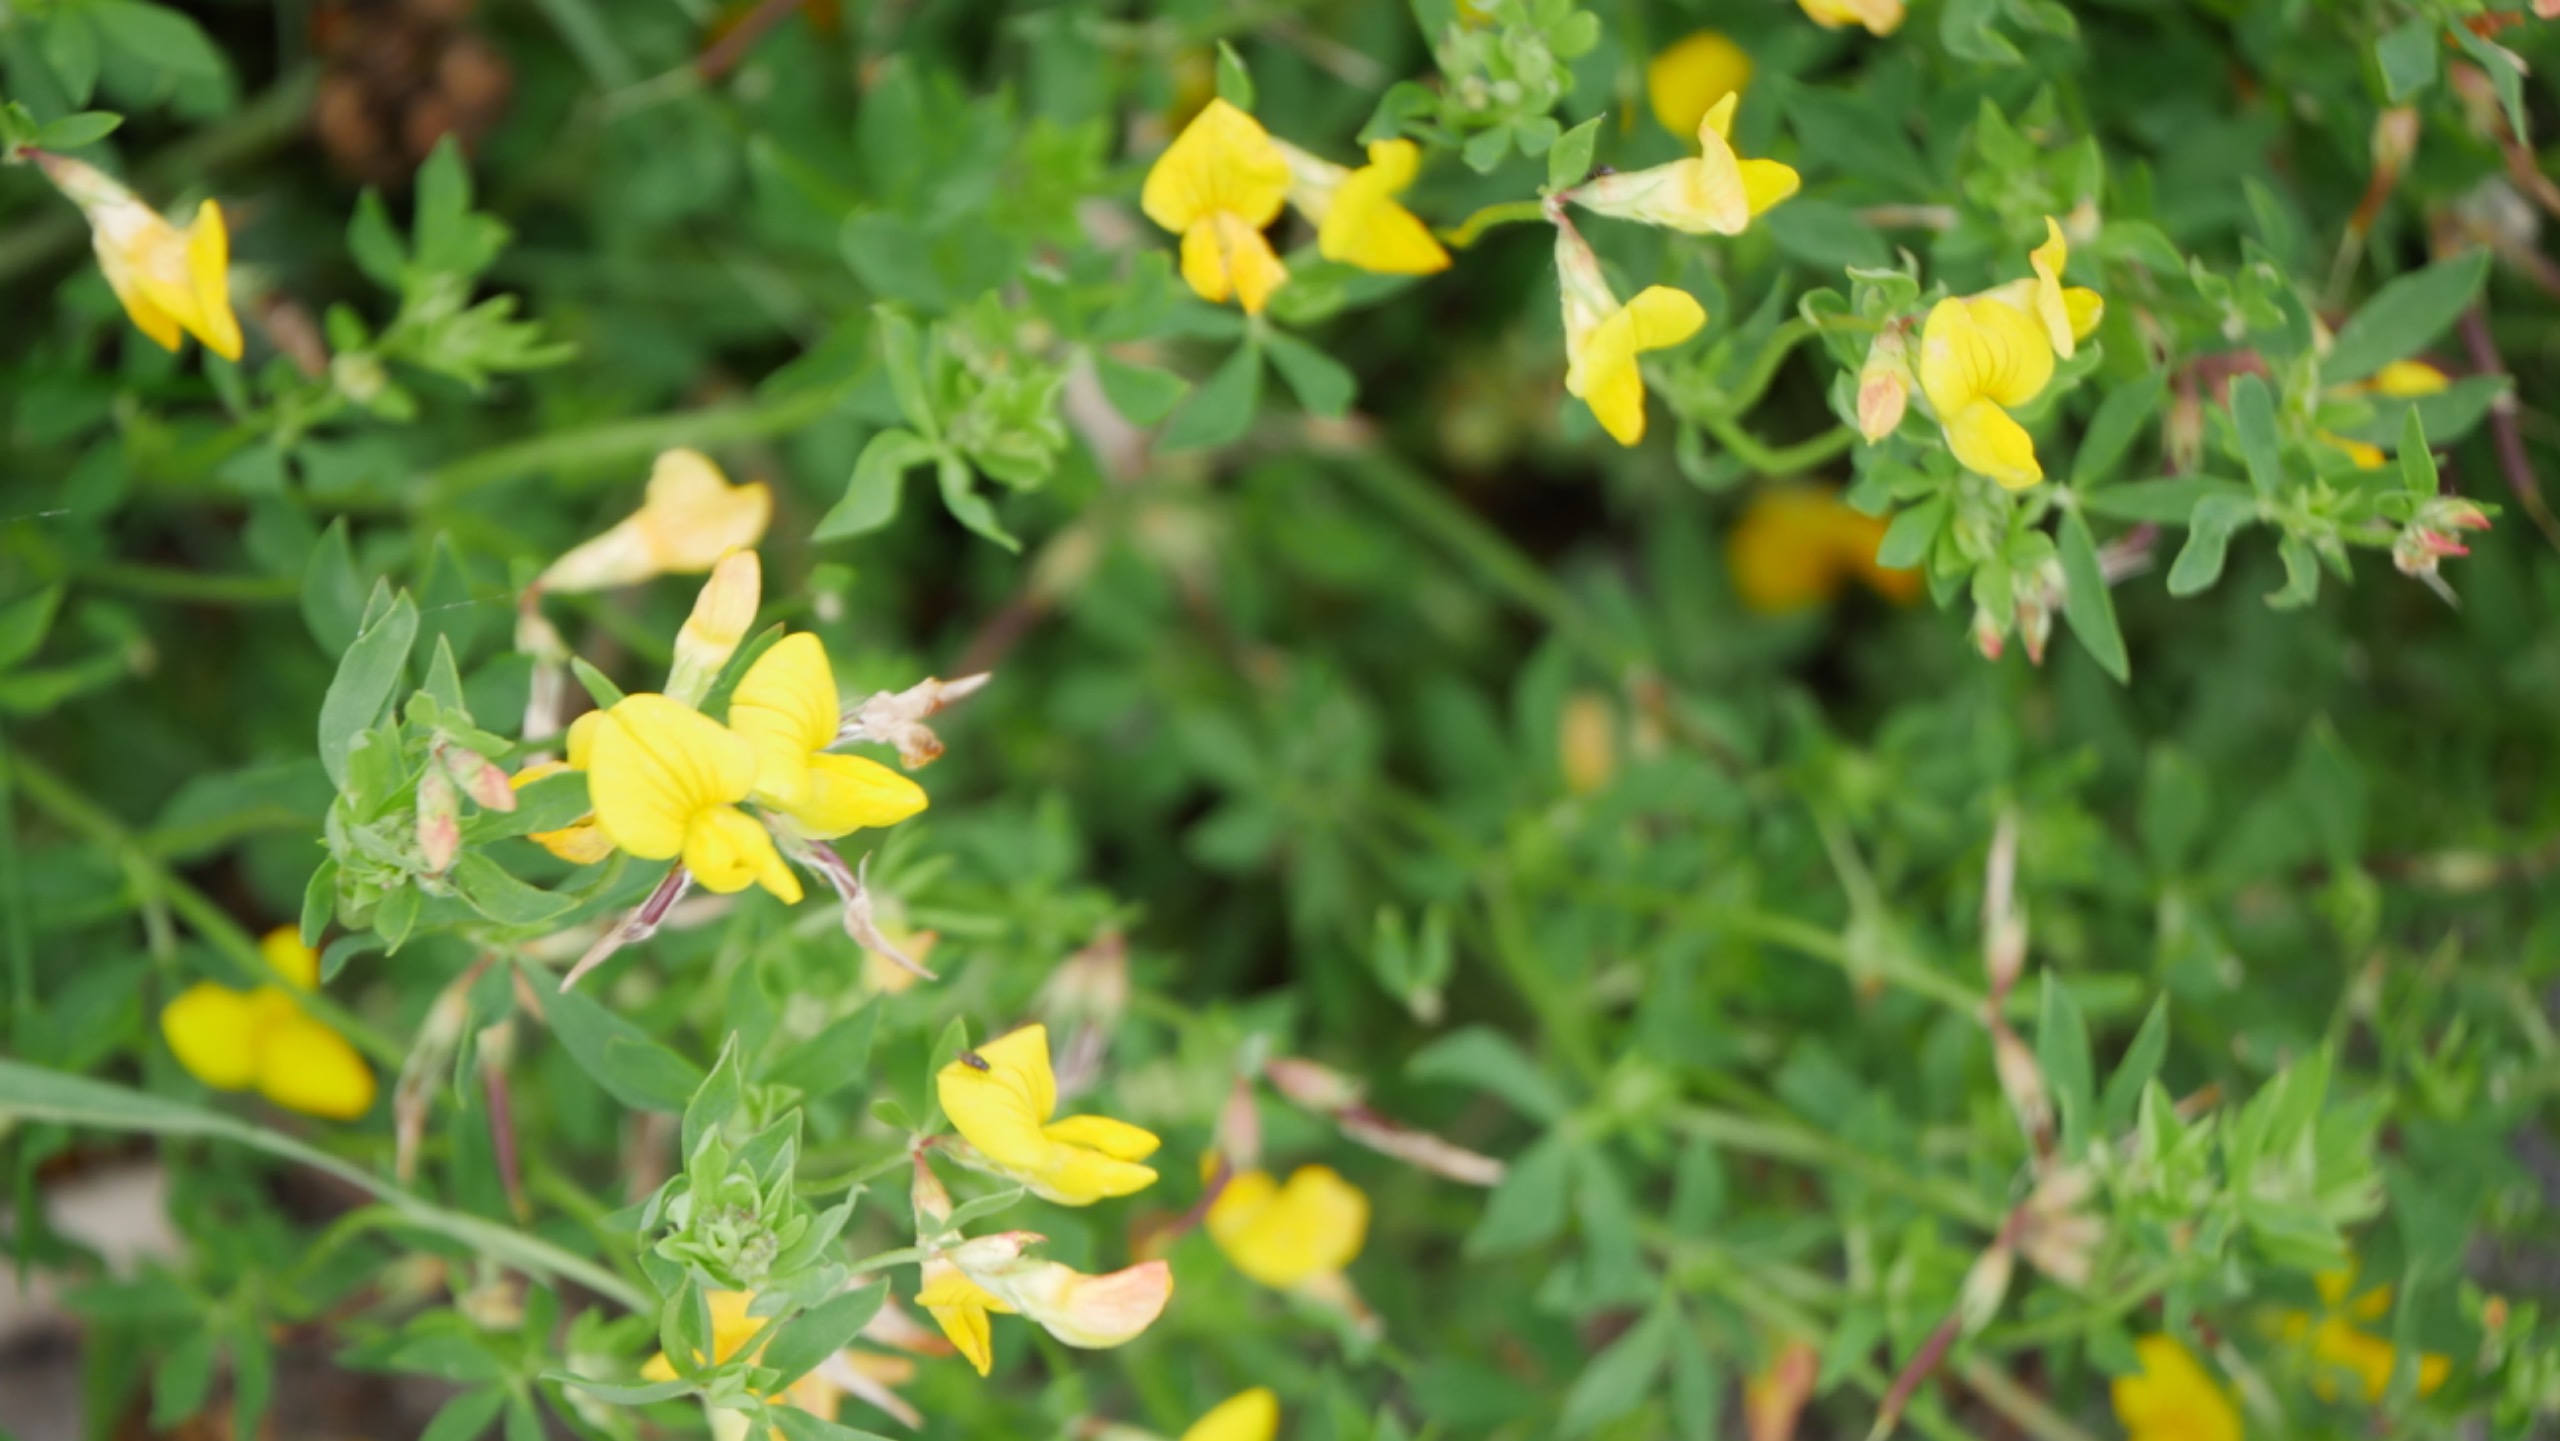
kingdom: Plantae
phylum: Tracheophyta
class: Magnoliopsida
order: Fabales
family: Fabaceae
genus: Lotus
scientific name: Lotus corniculatus
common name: Almindelig kællingetand
